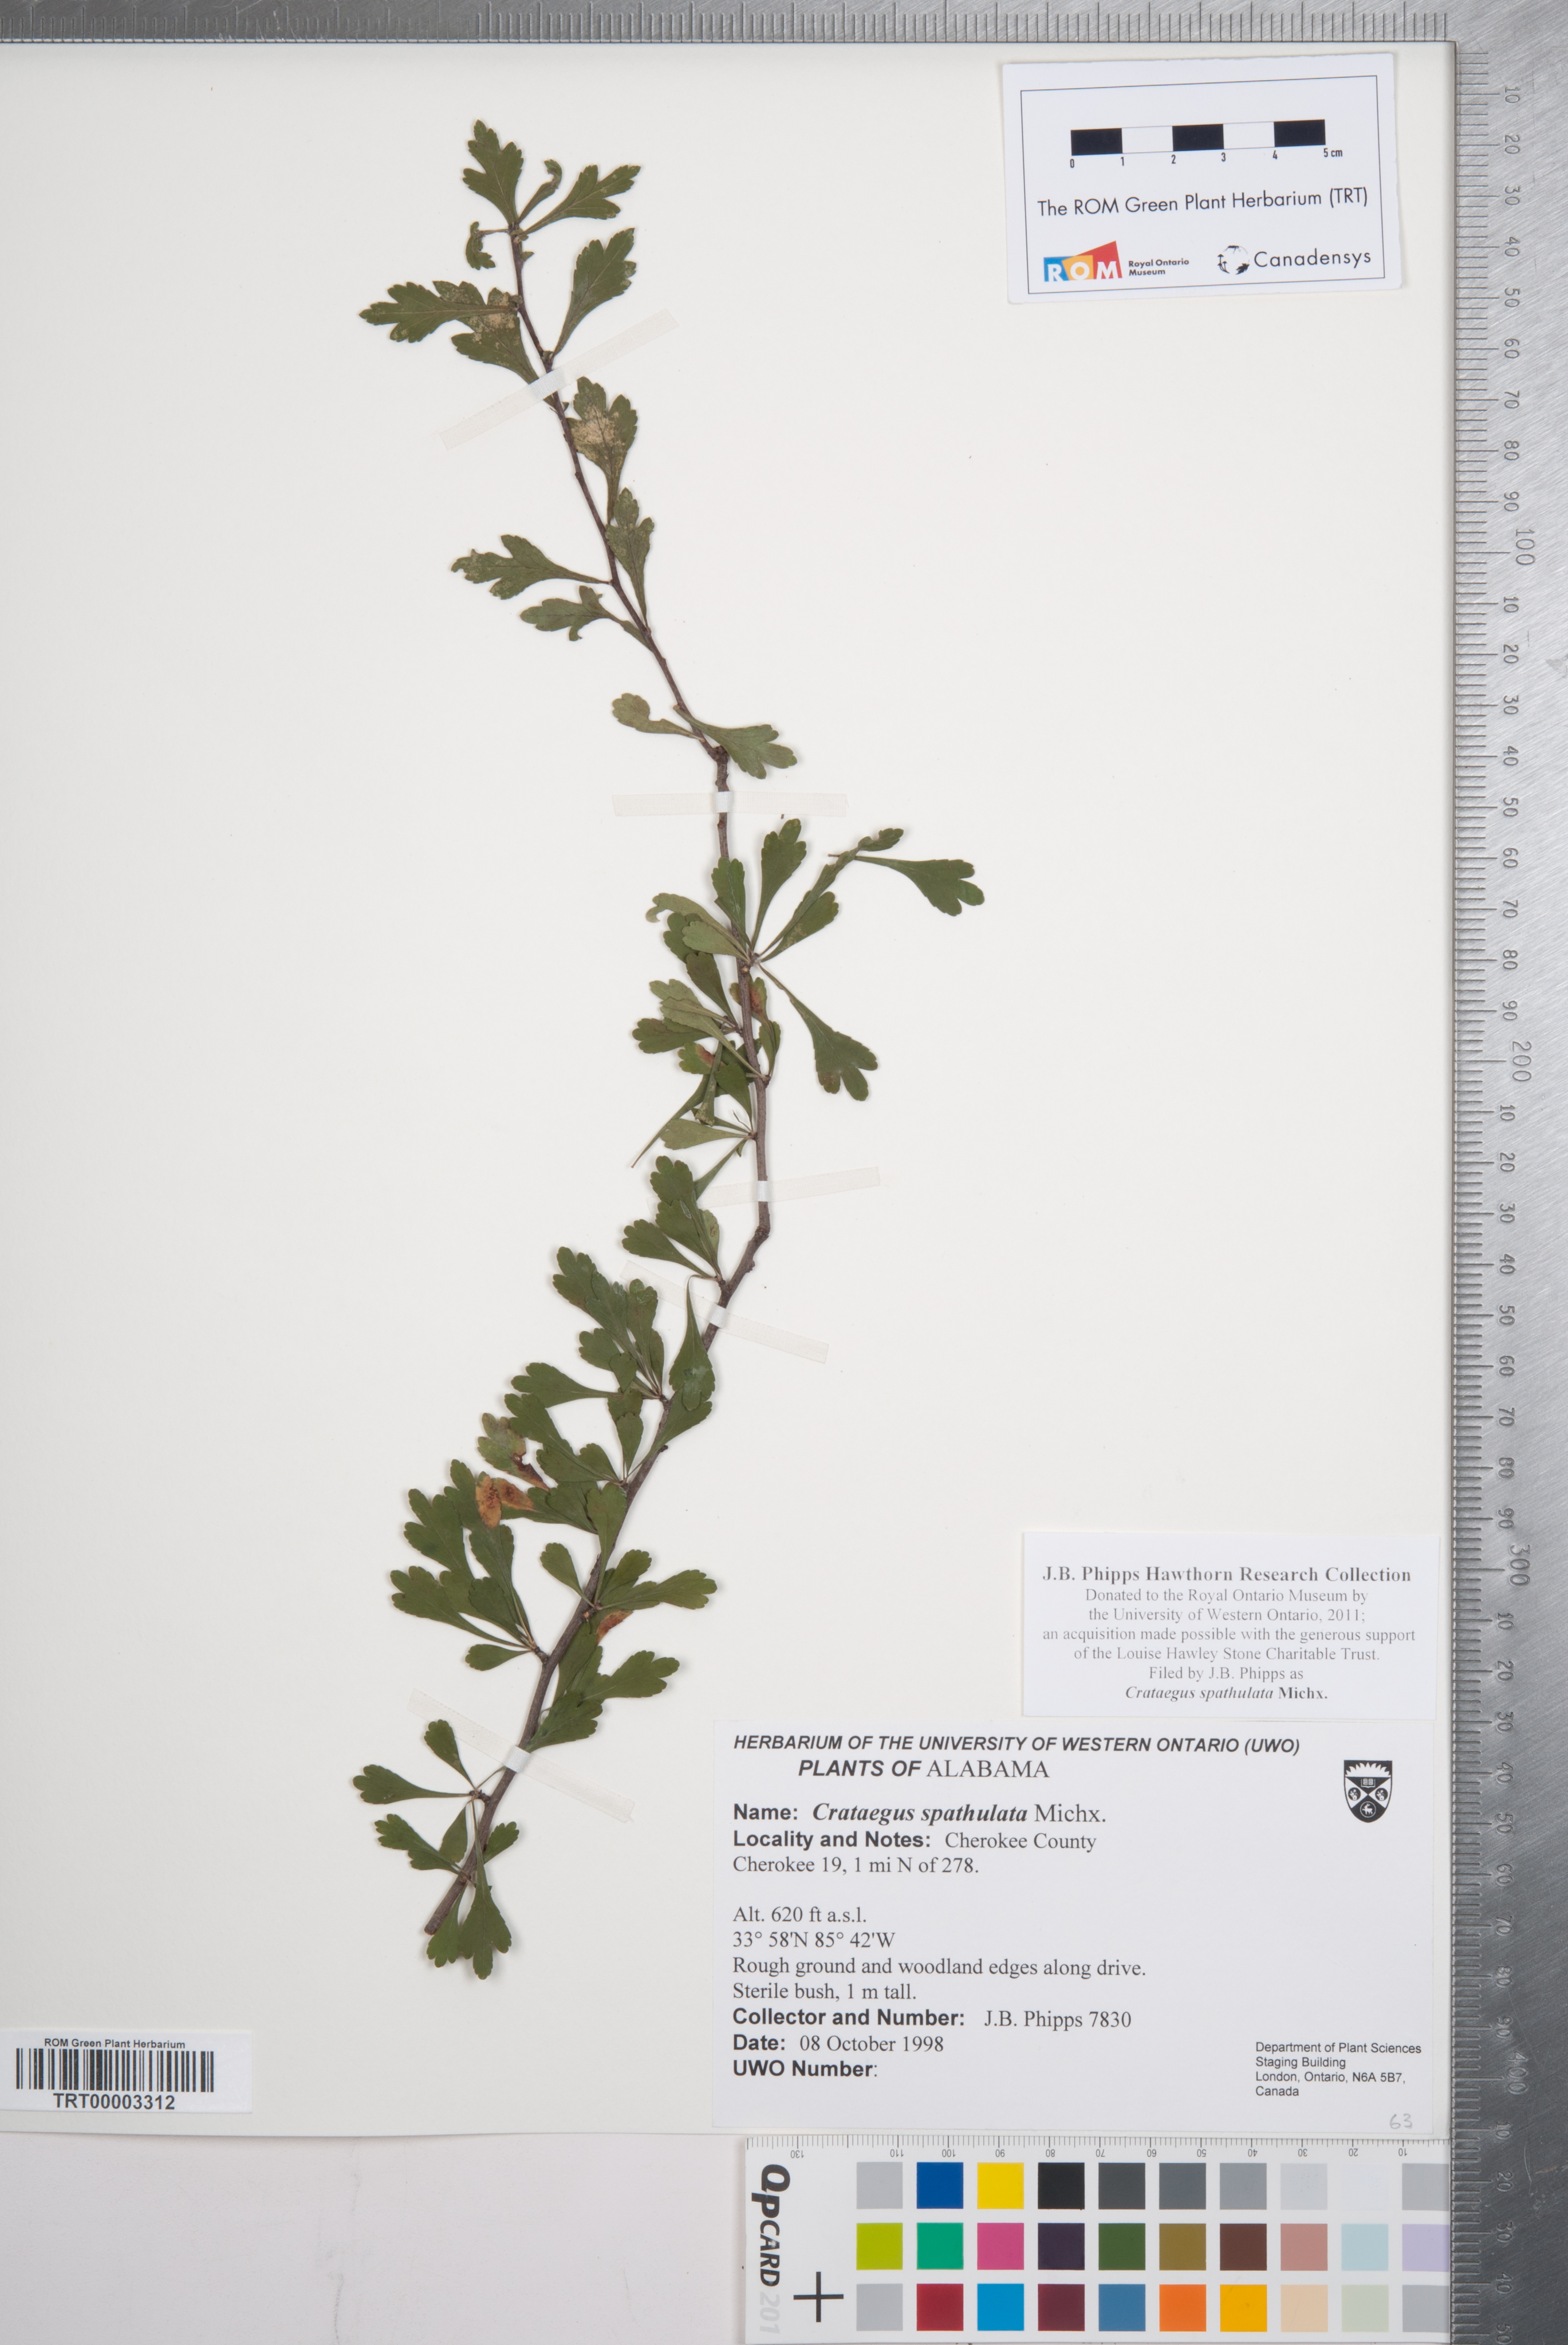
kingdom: Plantae
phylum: Tracheophyta
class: Magnoliopsida
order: Rosales
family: Rosaceae
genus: Crataegus
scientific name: Crataegus spathulata
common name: Littlehip hawthorn
